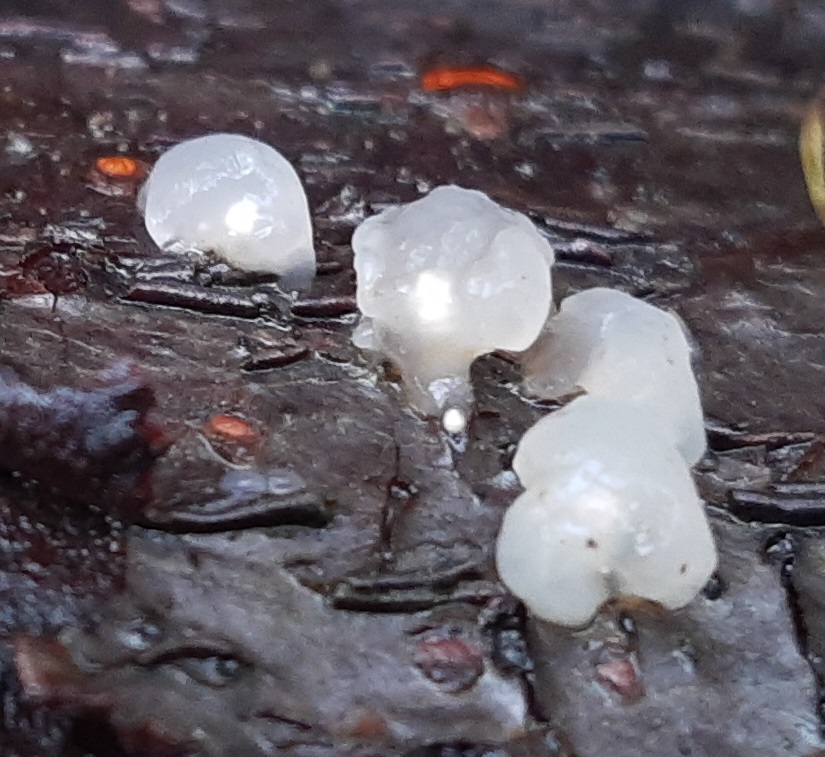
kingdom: Fungi
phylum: Basidiomycota
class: Agaricomycetes
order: Auriculariales
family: Hyaloriaceae
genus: Myxarium
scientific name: Myxarium nucleatum
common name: klar bævretop
